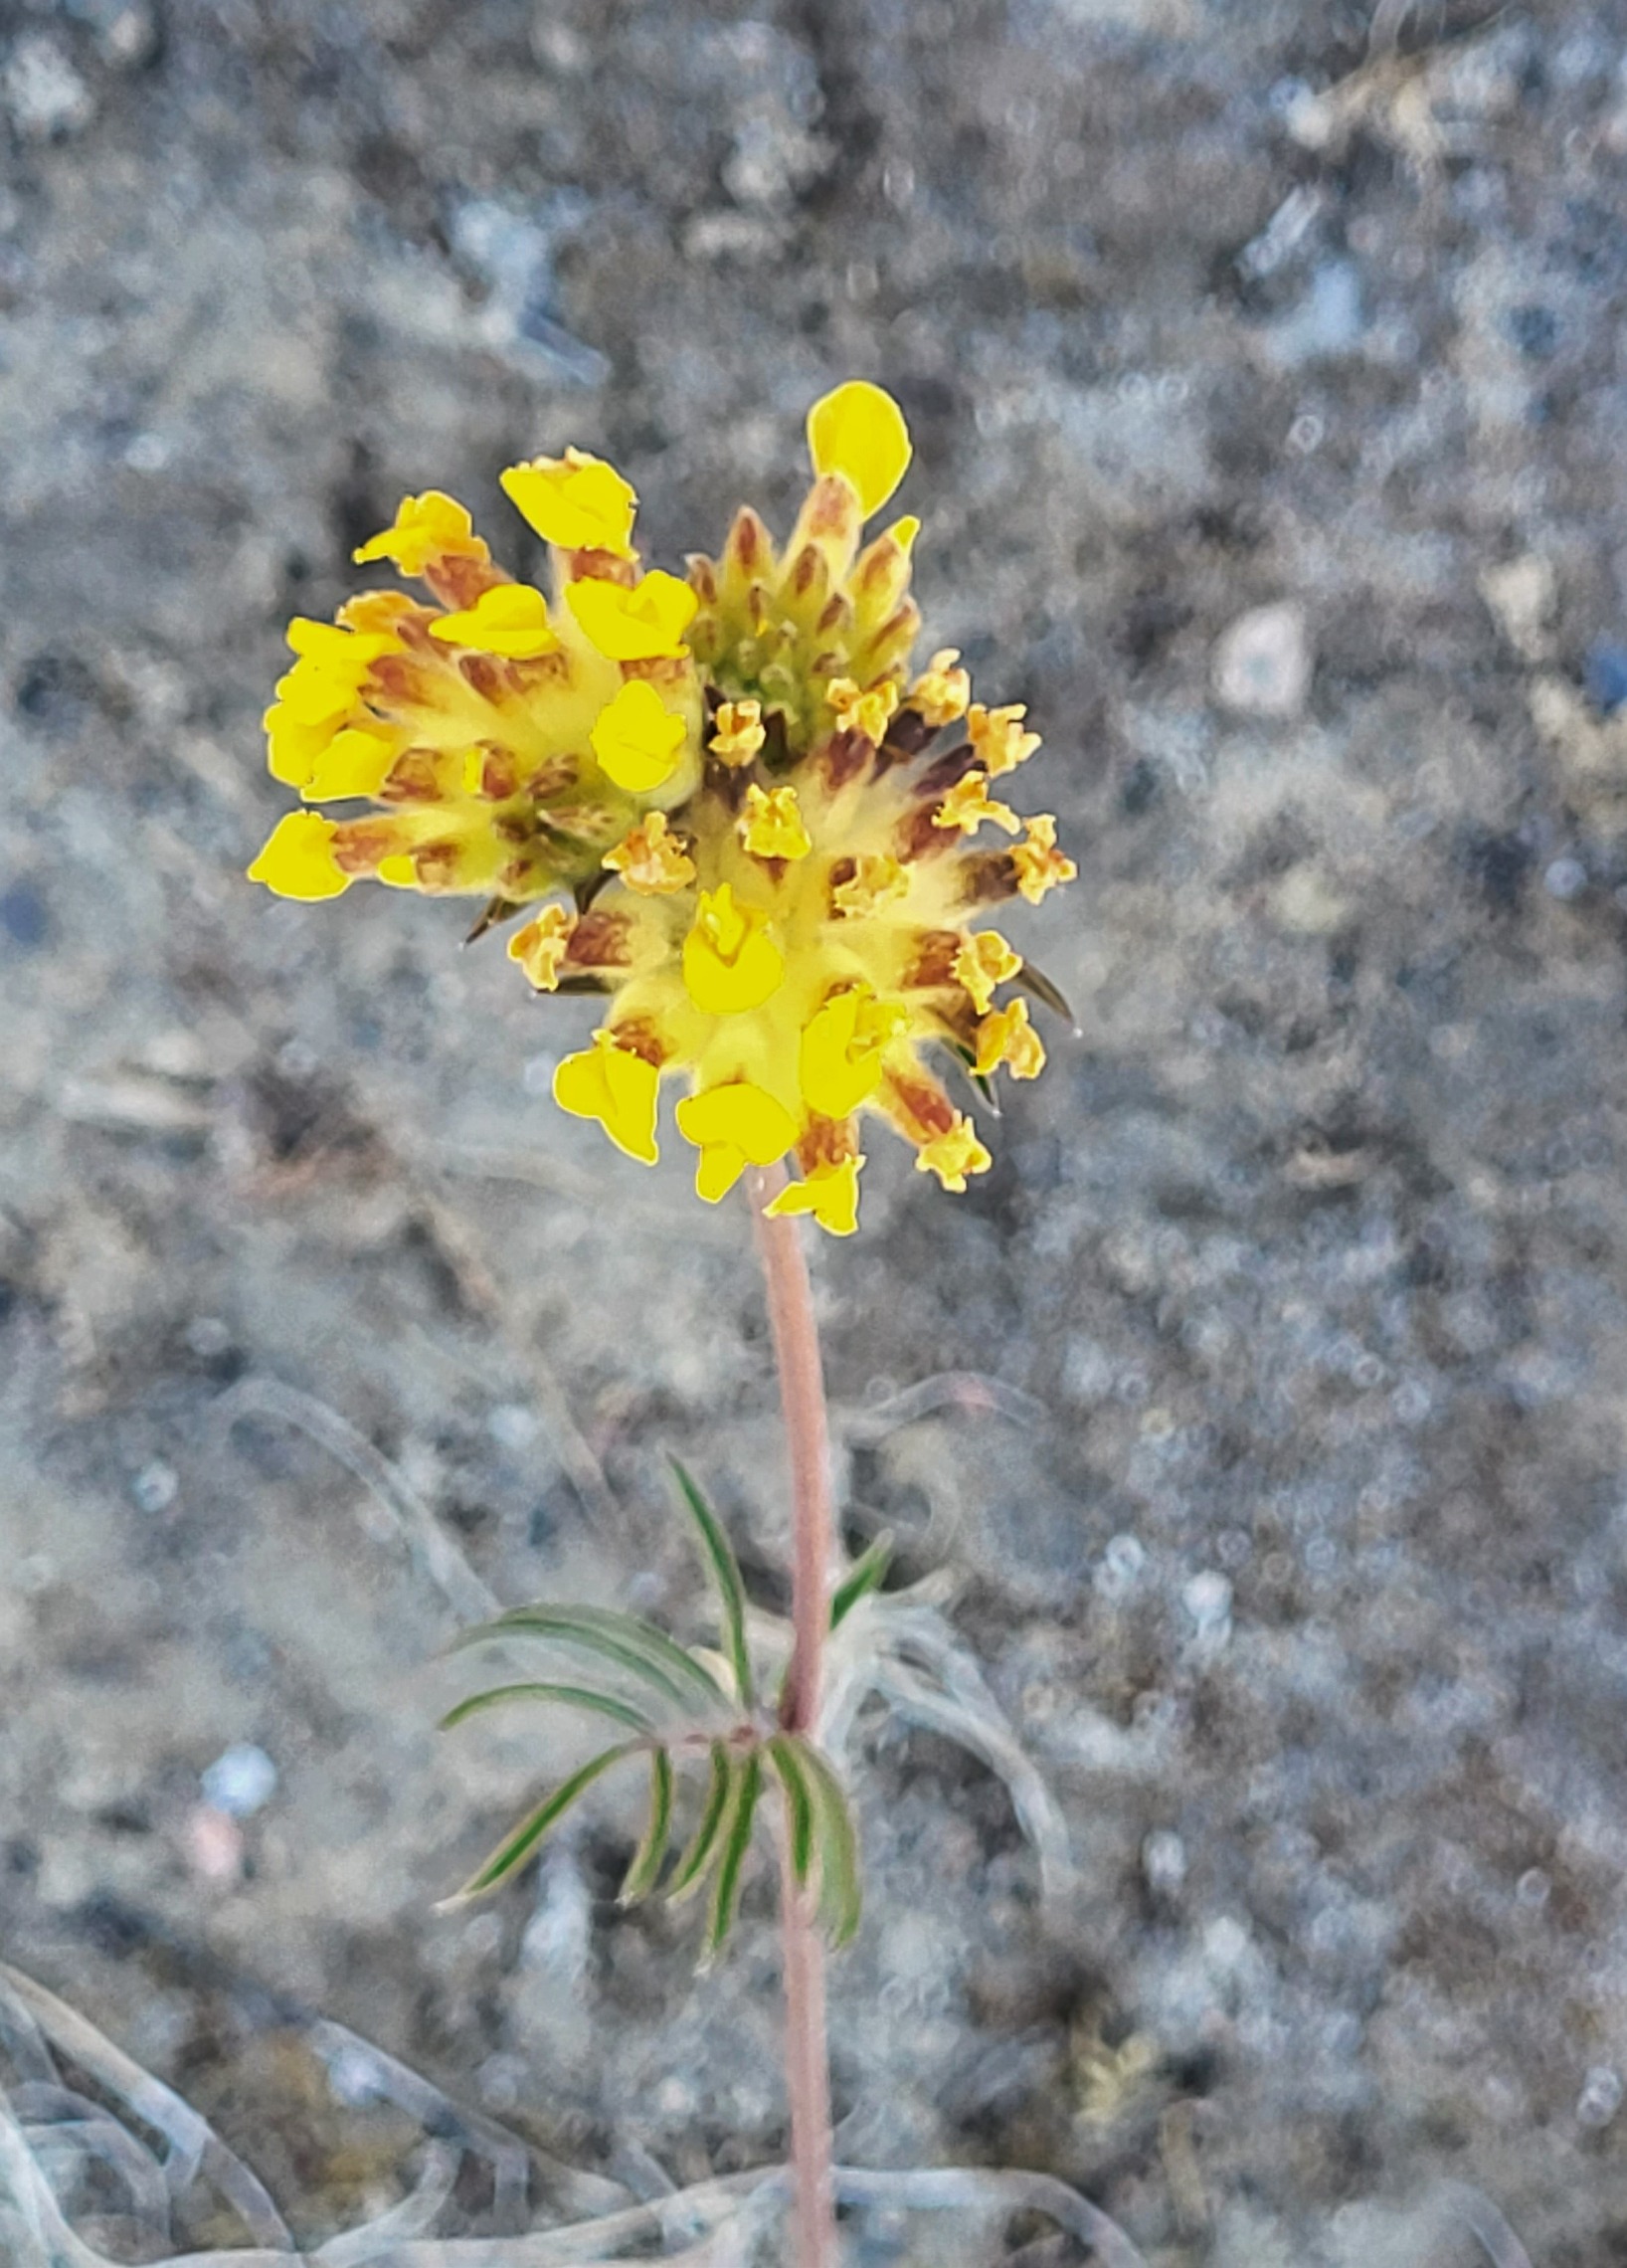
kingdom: Plantae
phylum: Tracheophyta
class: Magnoliopsida
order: Fabales
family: Fabaceae
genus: Anthyllis
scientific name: Anthyllis vulneraria
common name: Rundbælg
